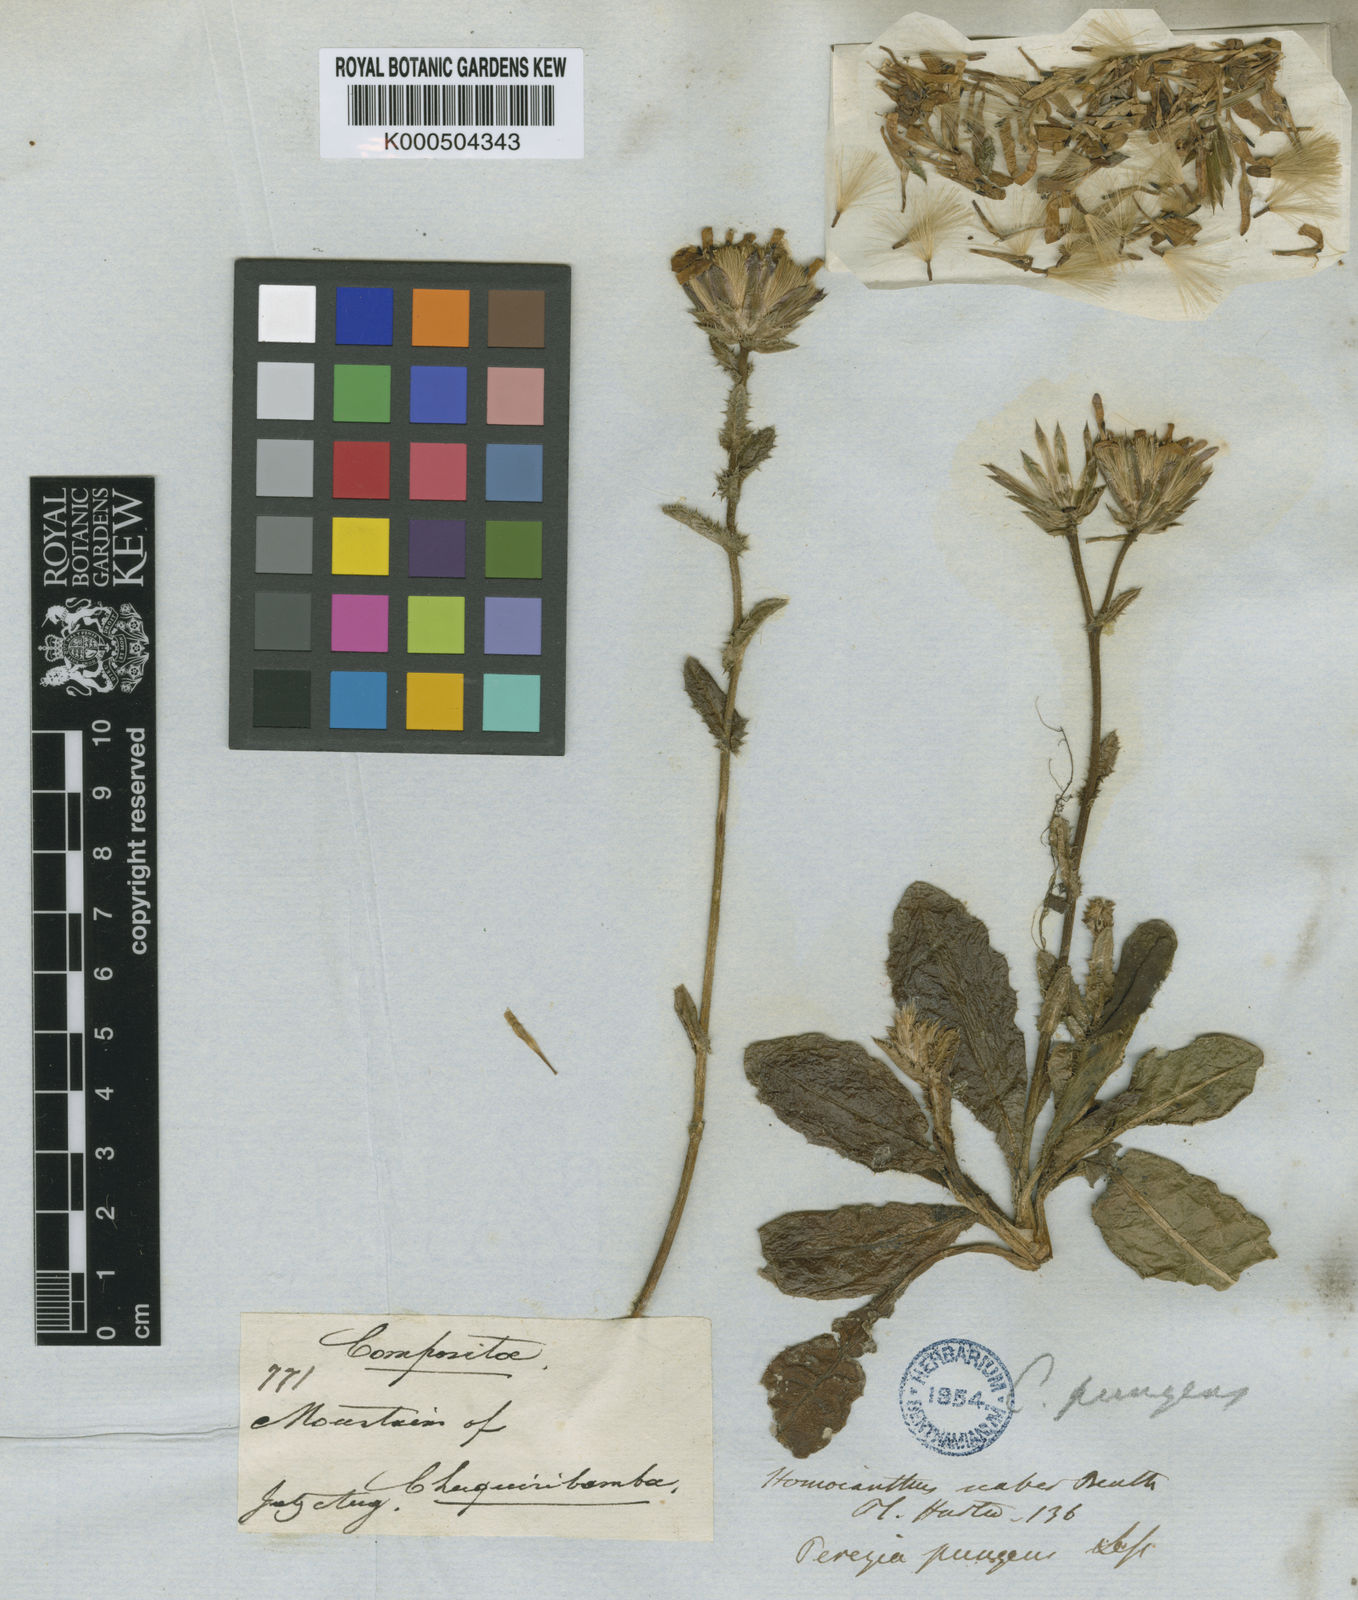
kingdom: Plantae
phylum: Tracheophyta
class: Magnoliopsida
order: Asterales
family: Asteraceae
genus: Perezia
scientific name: Perezia pungens
